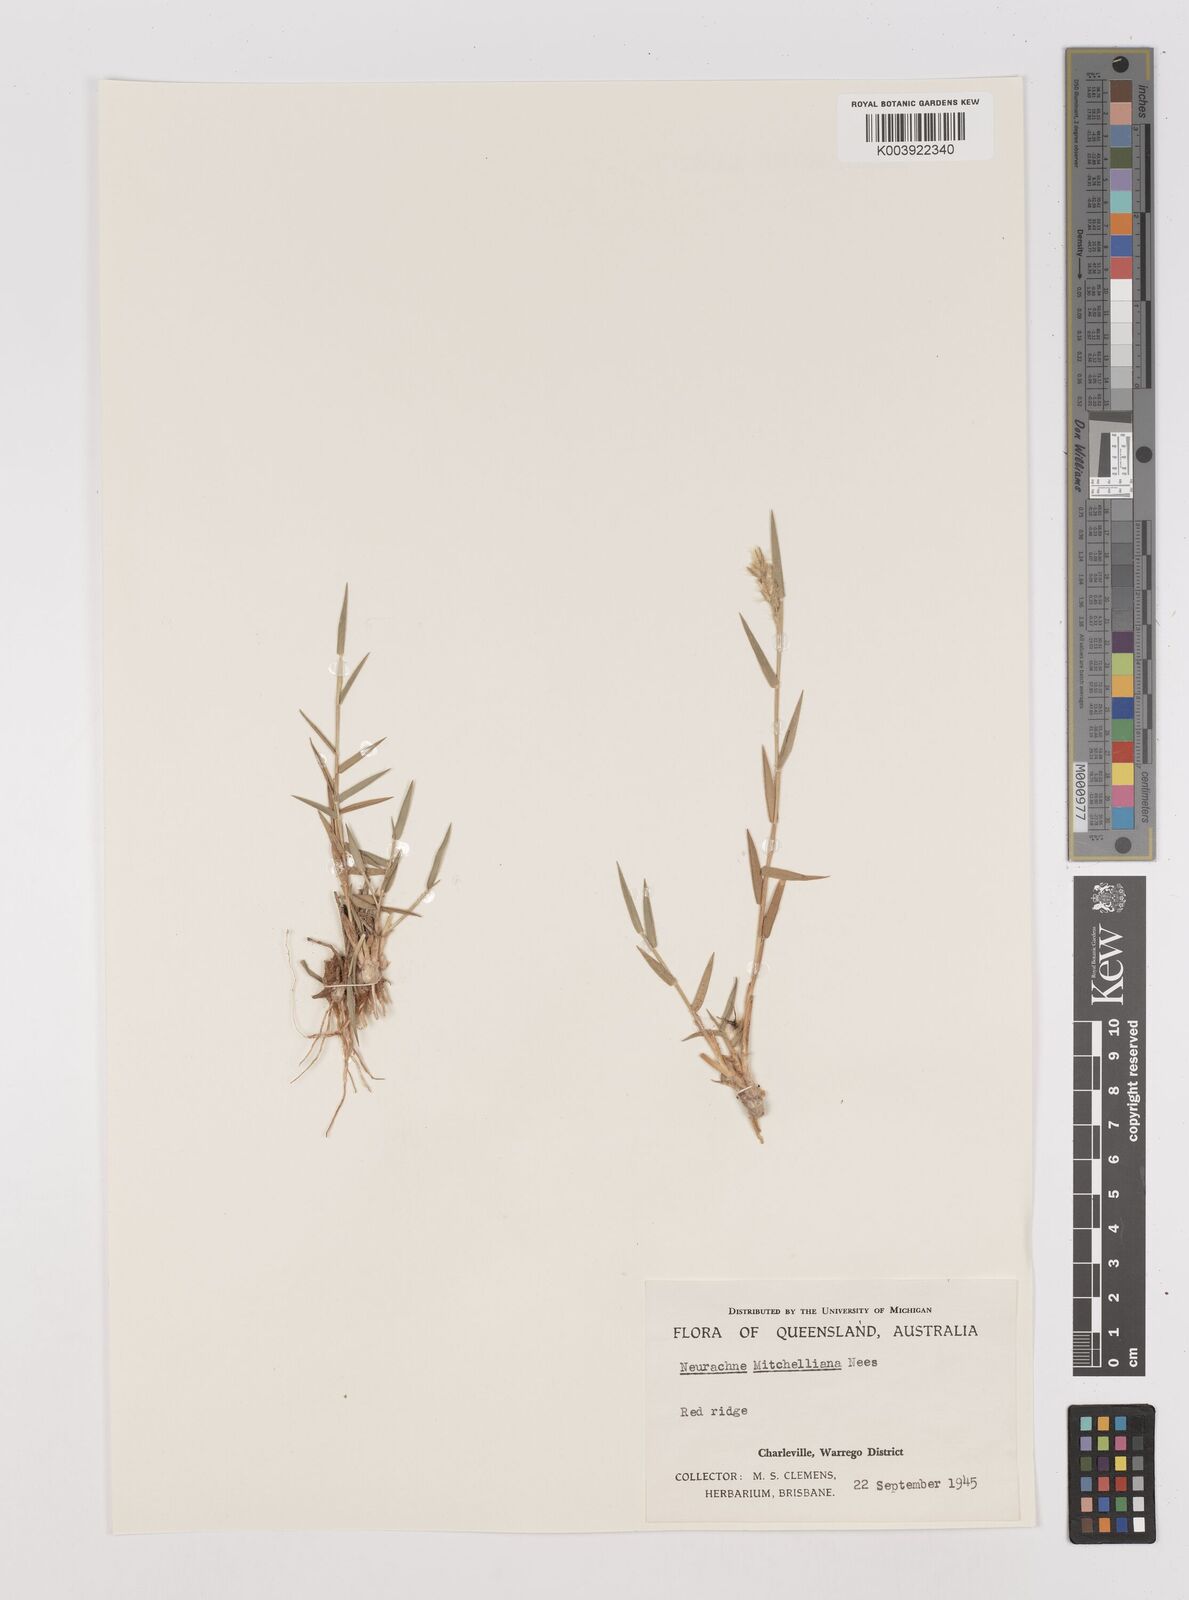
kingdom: Plantae
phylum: Tracheophyta
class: Liliopsida
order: Poales
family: Poaceae
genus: Thyridolepis
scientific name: Thyridolepis mitchelliana
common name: Rock tassel grass
